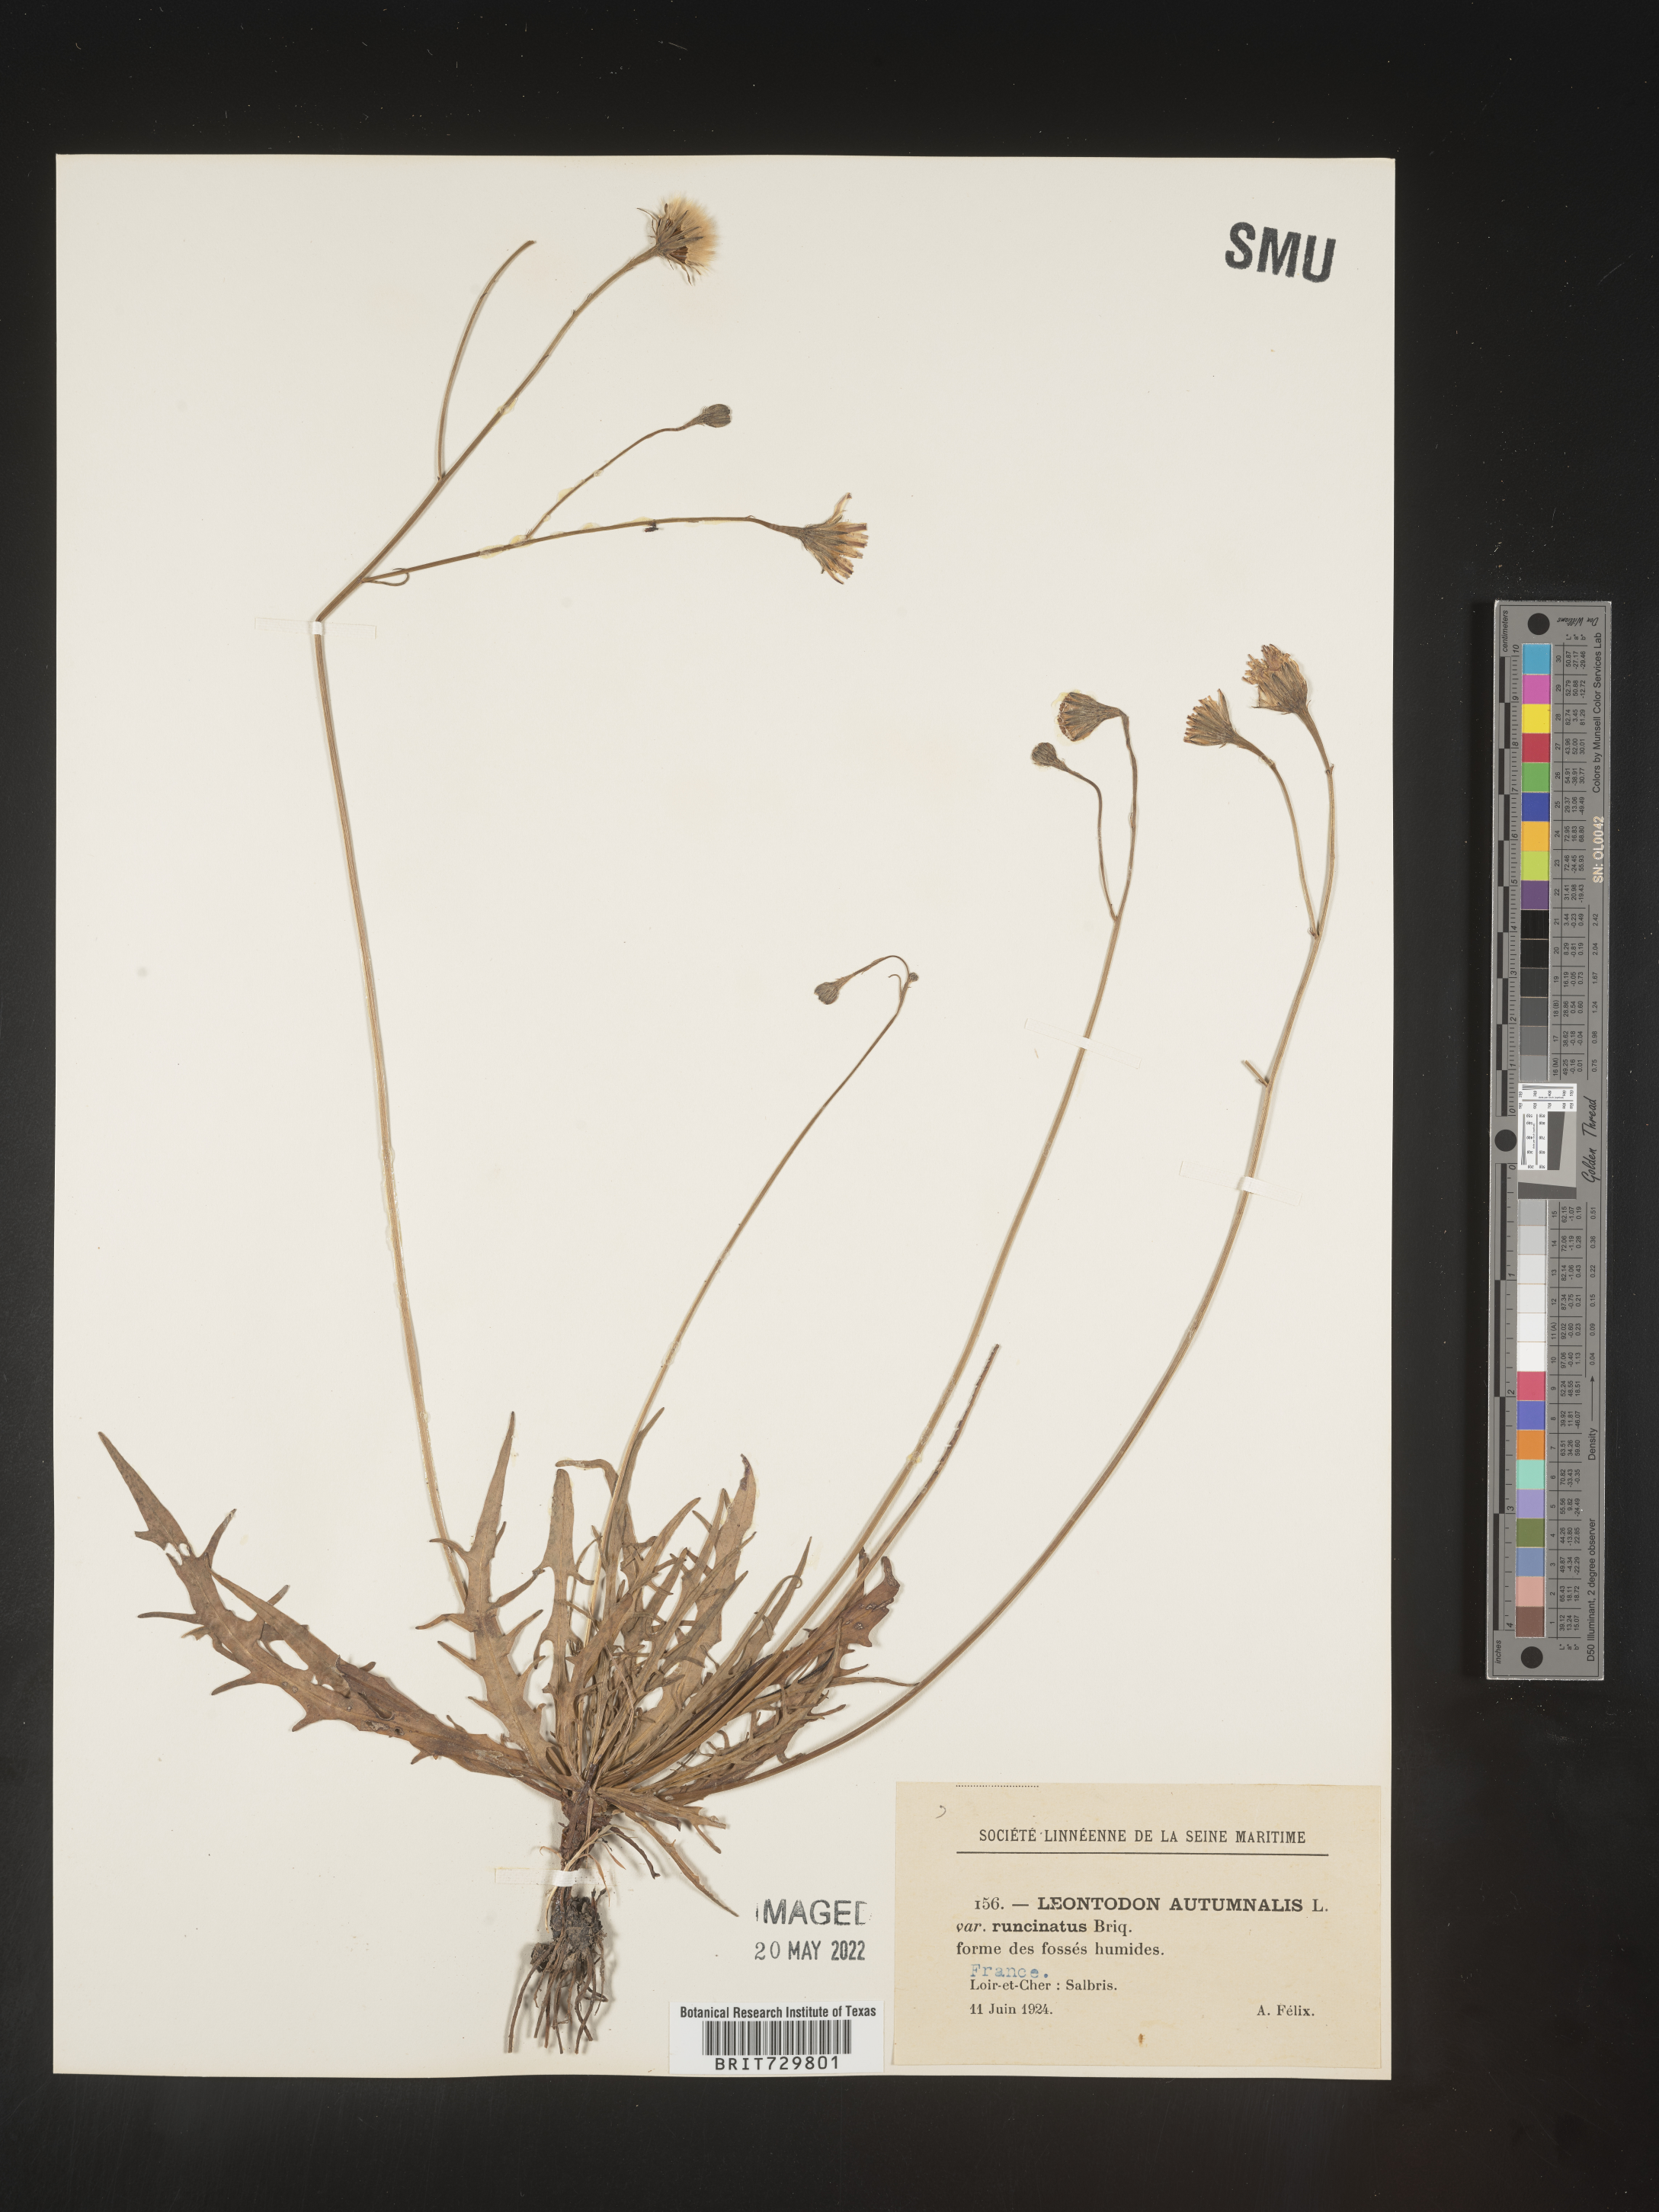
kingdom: Plantae
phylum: Tracheophyta
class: Magnoliopsida
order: Asterales
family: Asteraceae
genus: Leontodon
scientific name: Leontodon
